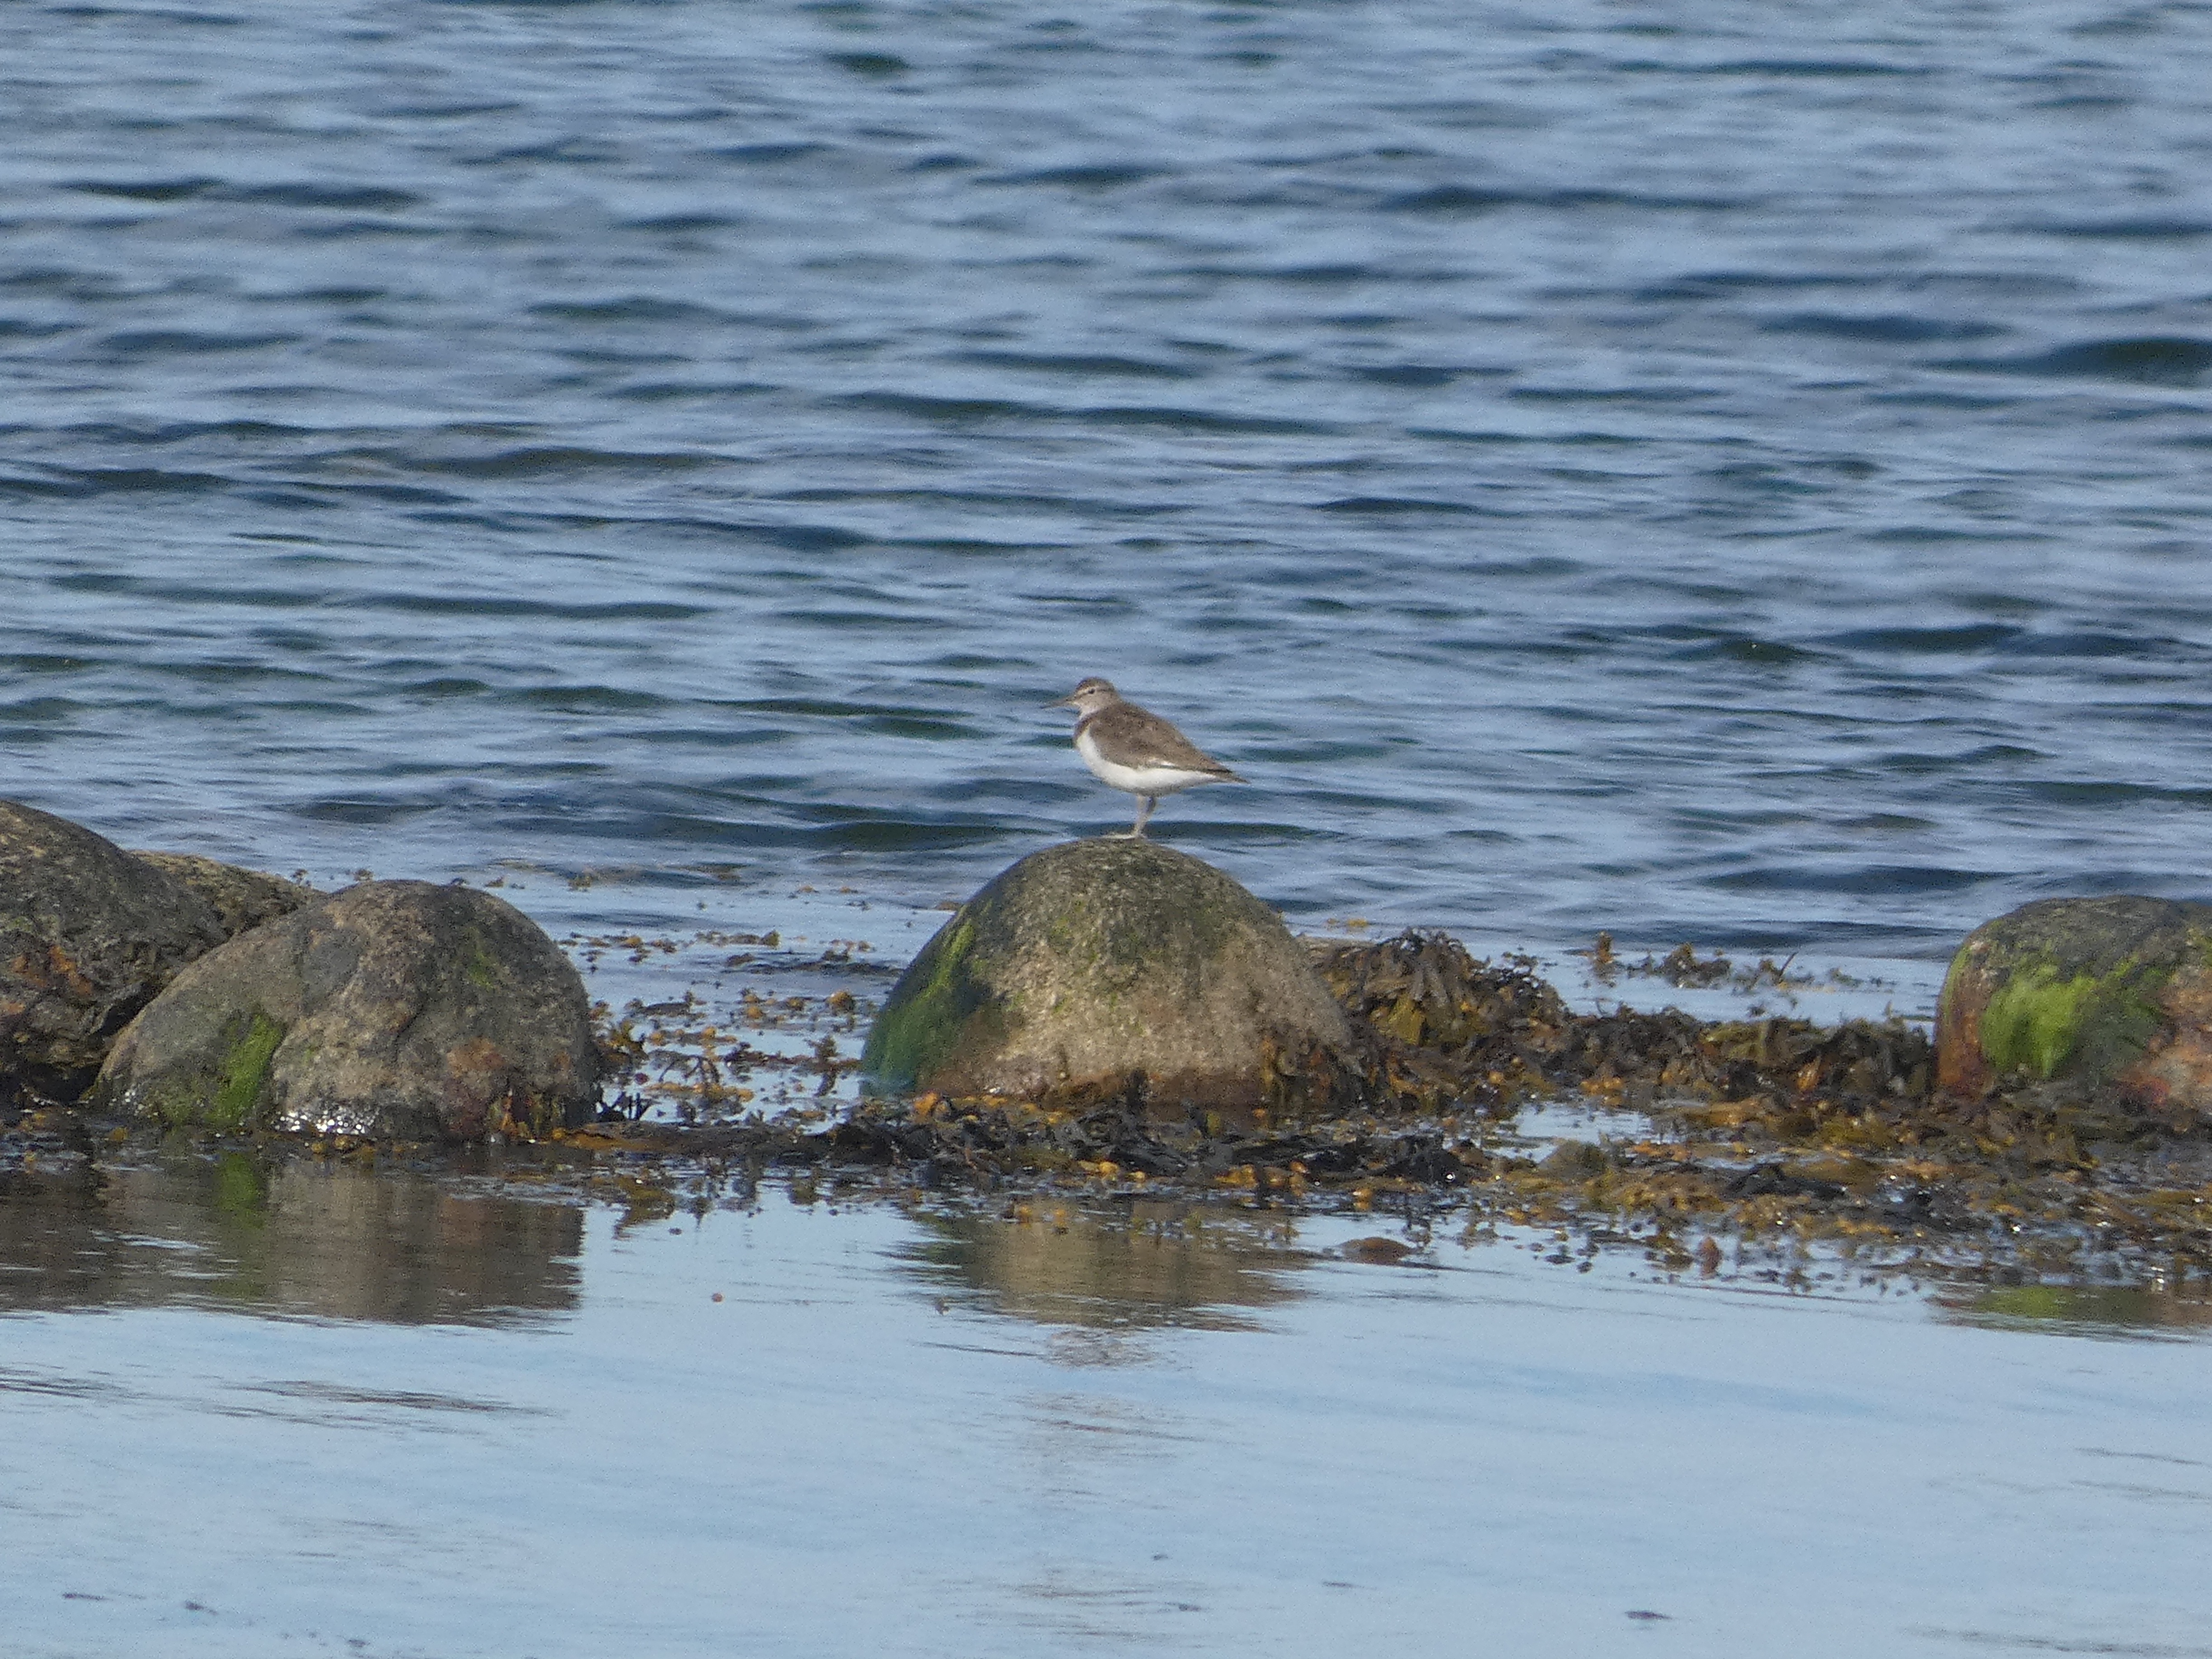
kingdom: Animalia
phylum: Chordata
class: Aves
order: Charadriiformes
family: Scolopacidae
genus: Actitis
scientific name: Actitis hypoleucos
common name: Mudderklire
